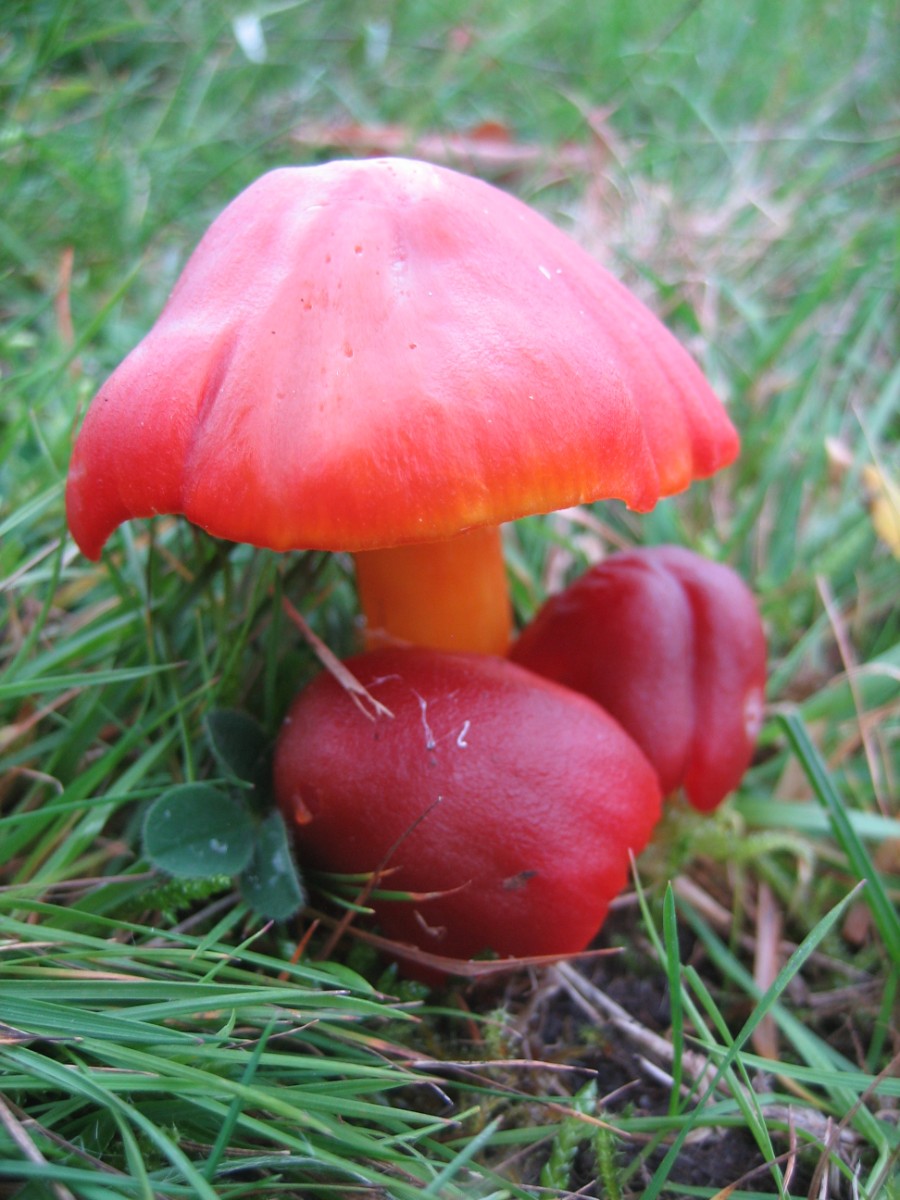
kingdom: Fungi
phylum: Basidiomycota
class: Agaricomycetes
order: Agaricales
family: Hygrophoraceae
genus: Hygrocybe
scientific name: Hygrocybe punicea
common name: skarlagen-vokshat
